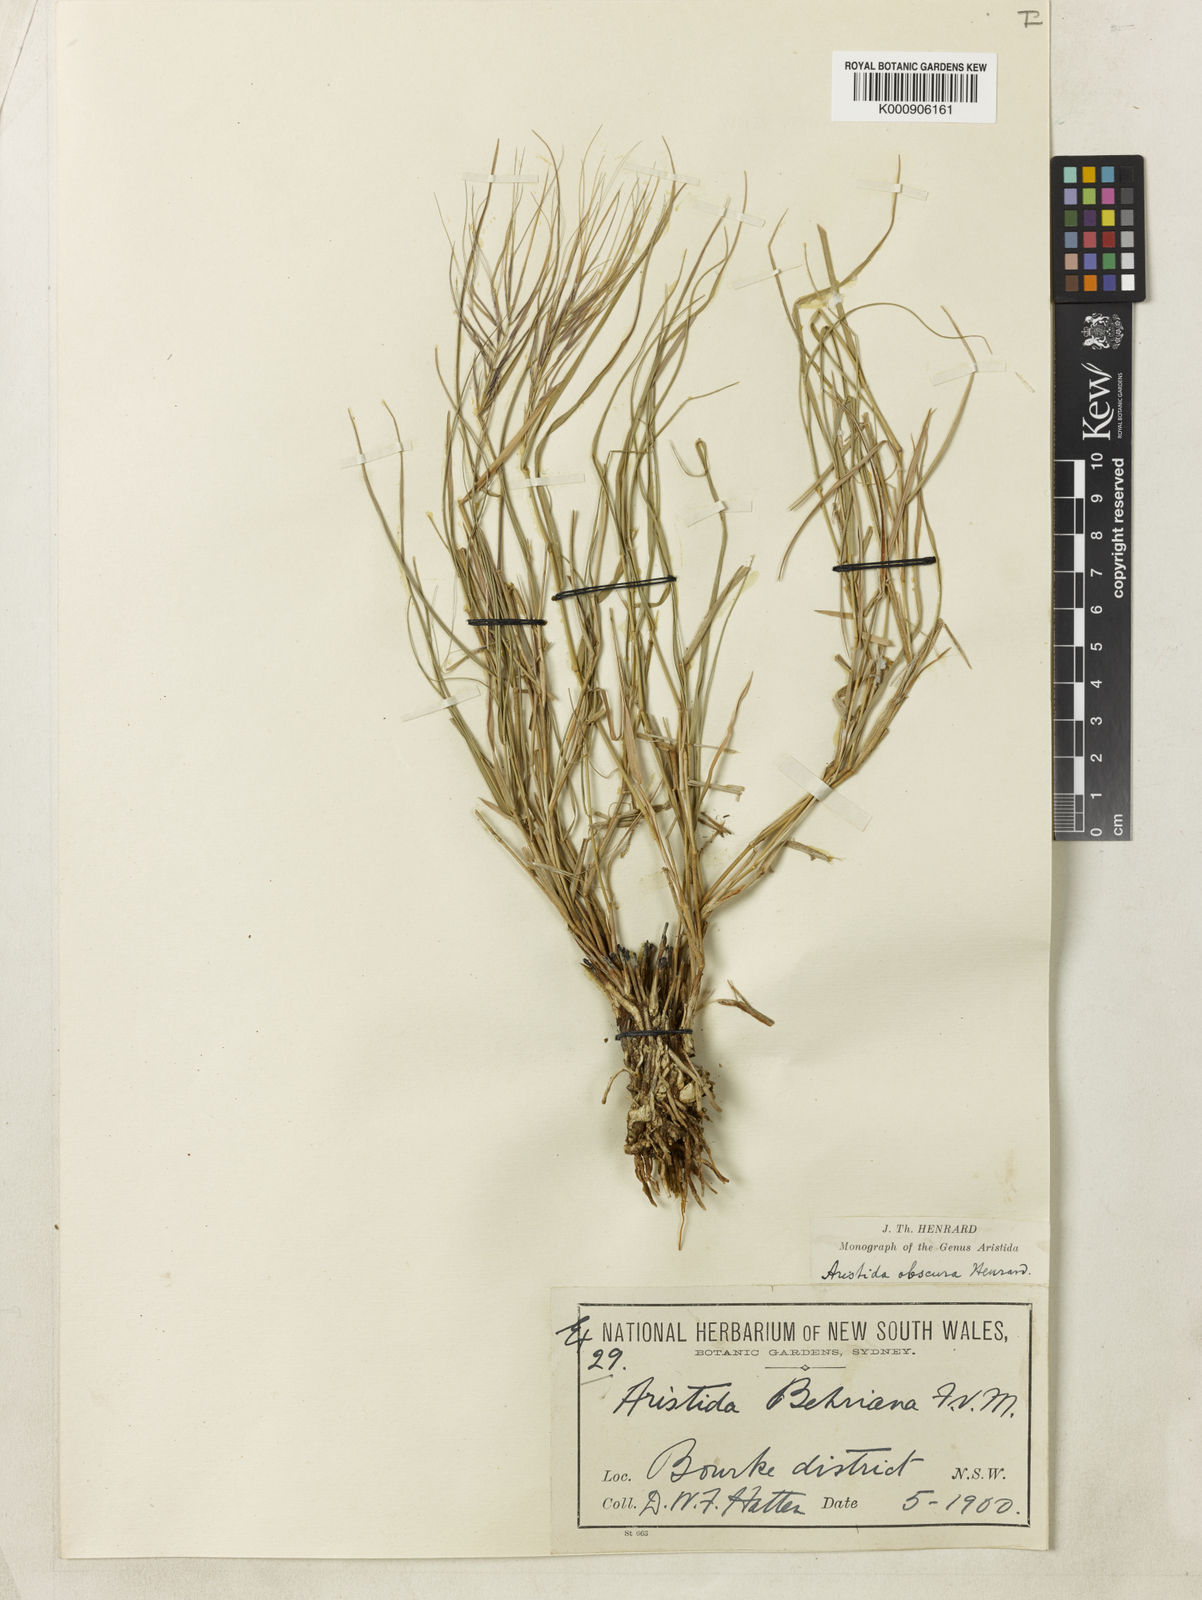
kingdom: Plantae
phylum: Tracheophyta
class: Liliopsida
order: Poales
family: Poaceae
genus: Aristida
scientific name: Aristida obscura
